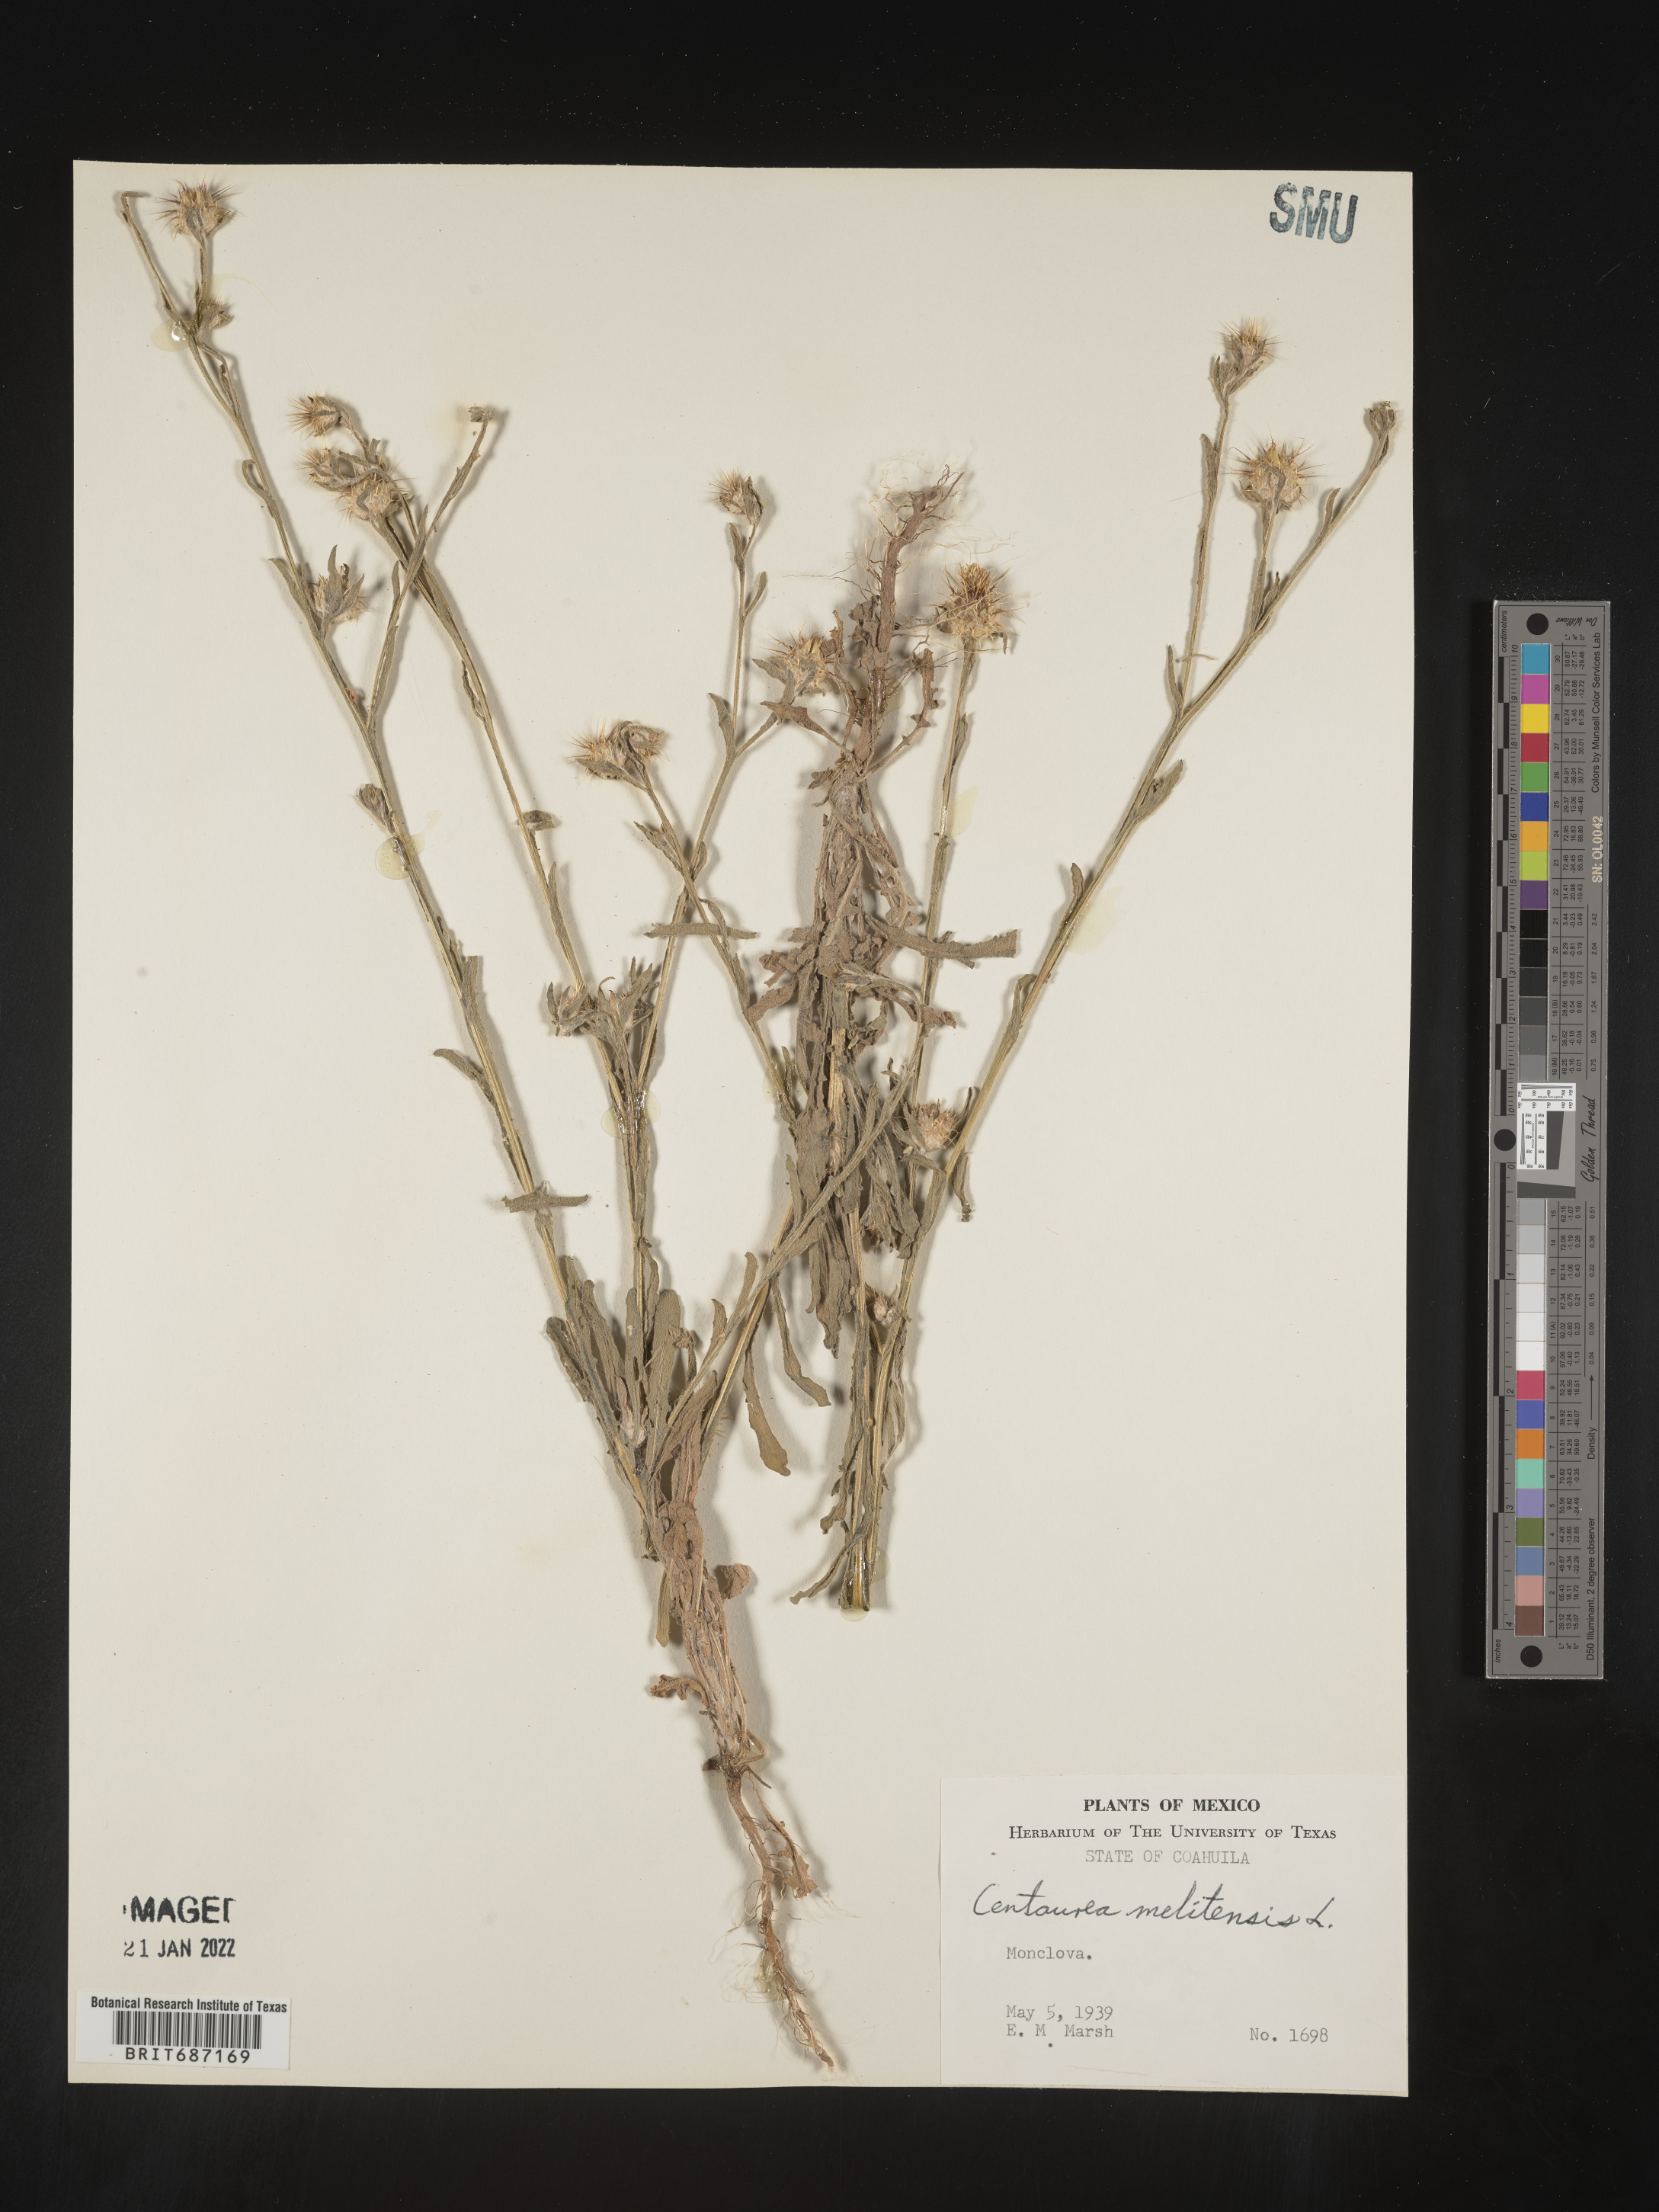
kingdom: Plantae
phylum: Tracheophyta
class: Magnoliopsida
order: Asterales
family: Asteraceae
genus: Centaurea
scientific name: Centaurea
